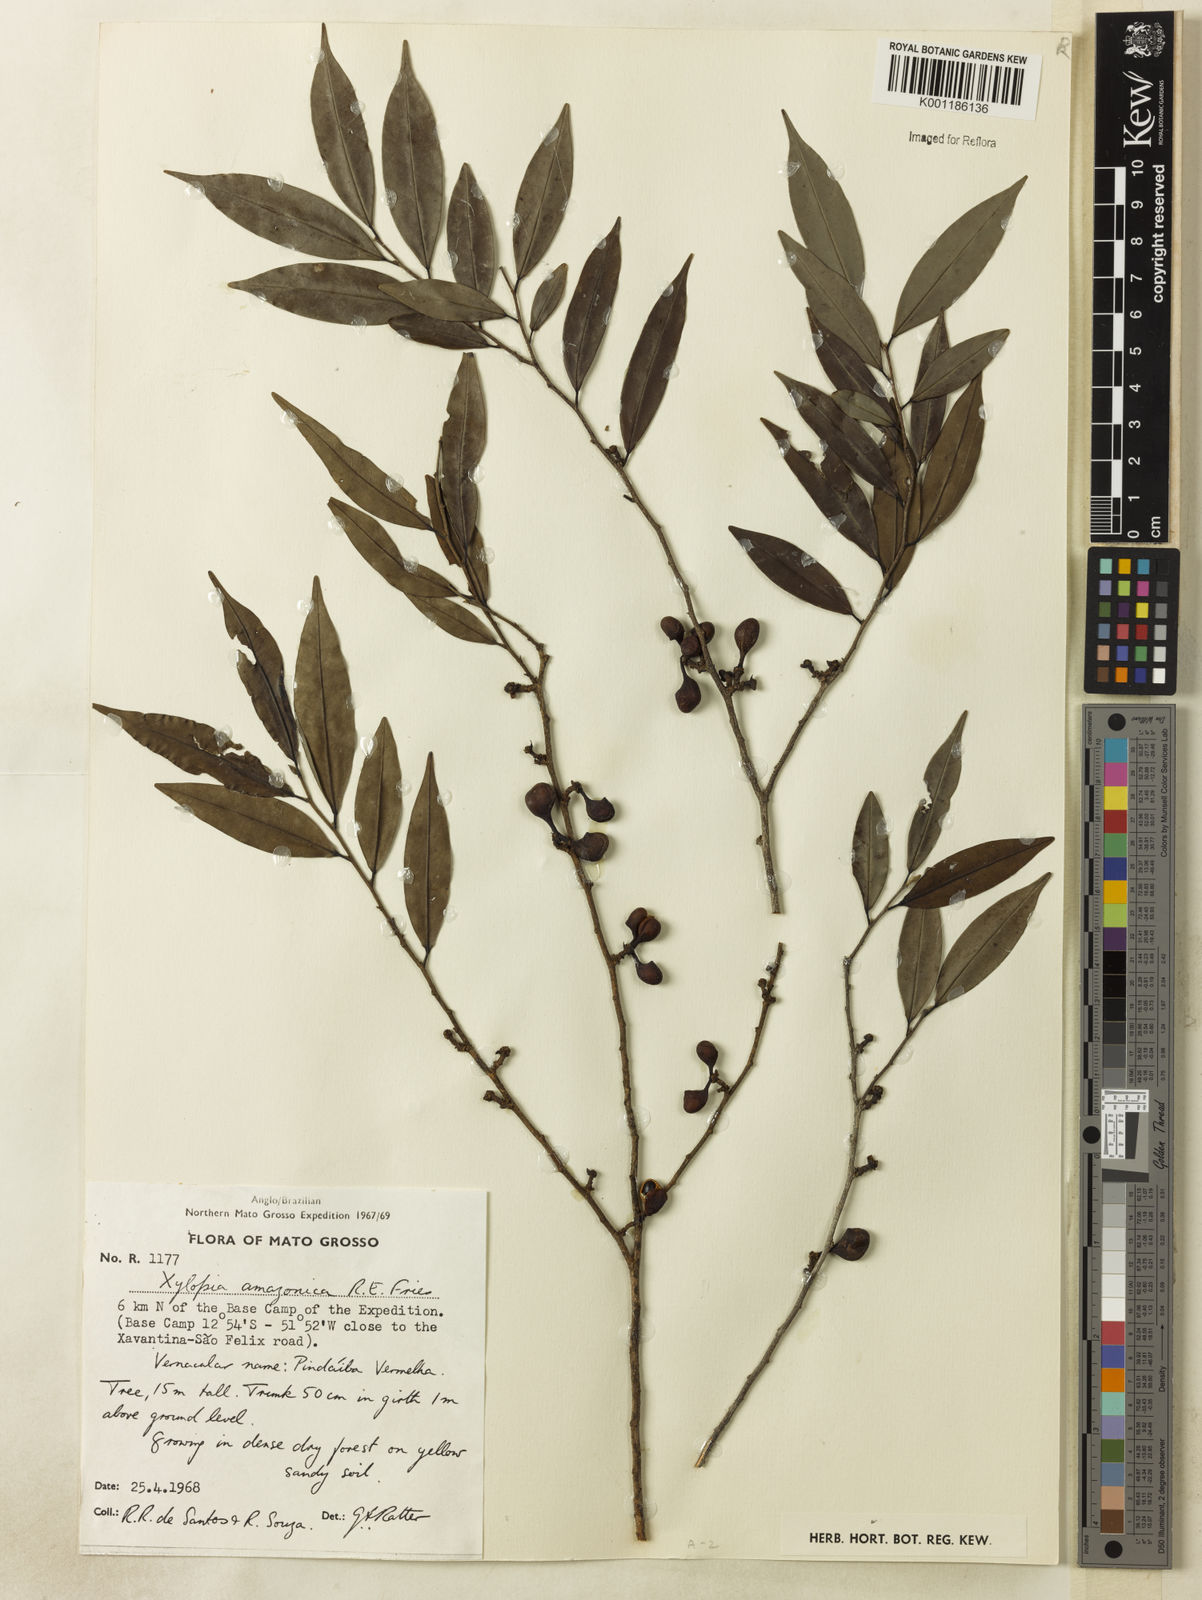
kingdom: Plantae
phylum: Tracheophyta
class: Magnoliopsida
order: Magnoliales
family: Annonaceae
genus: Xylopia
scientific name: Xylopia amazonica
